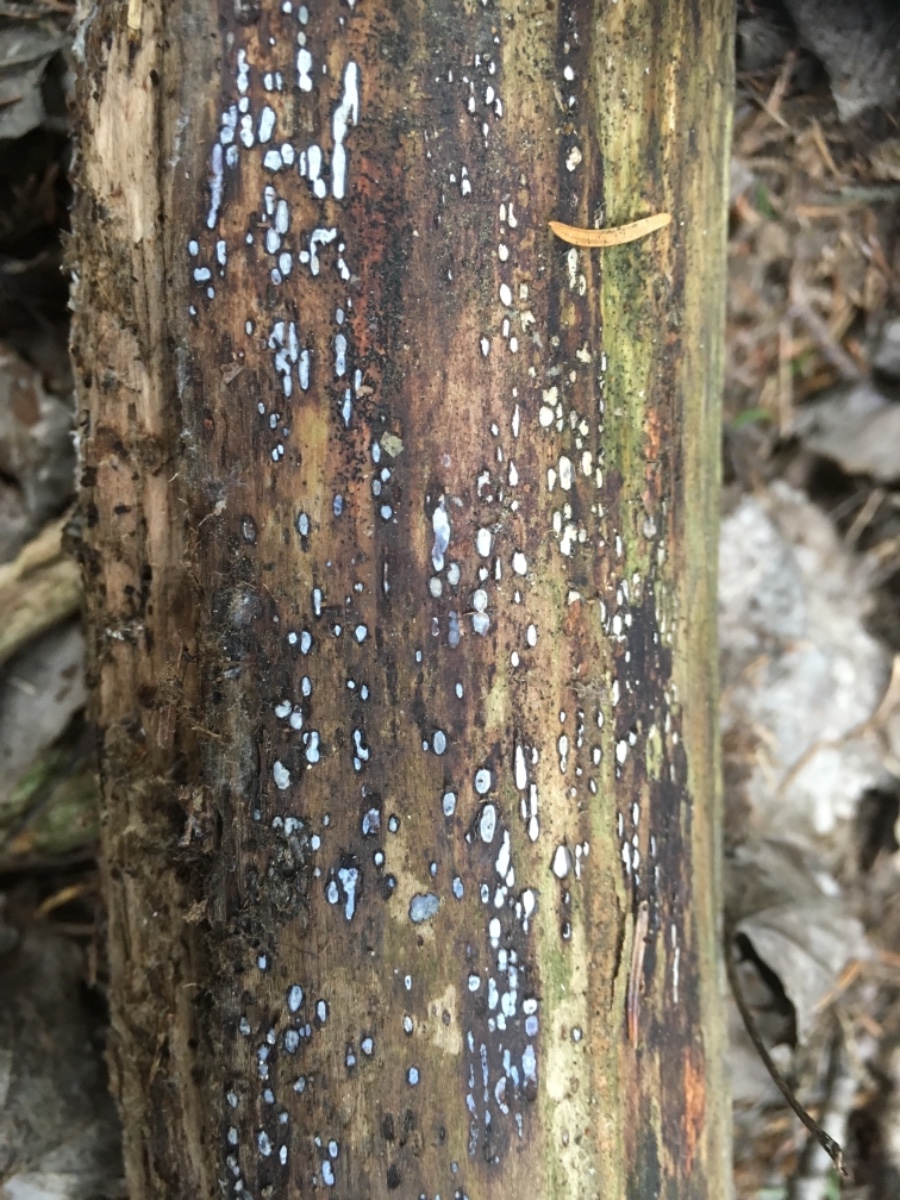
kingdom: Fungi
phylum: Ascomycota
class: Leotiomycetes
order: Chaetomellales
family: Marthamycetaceae
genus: Propolis
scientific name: Propolis farinosa
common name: almindelig vedsprængerskive
